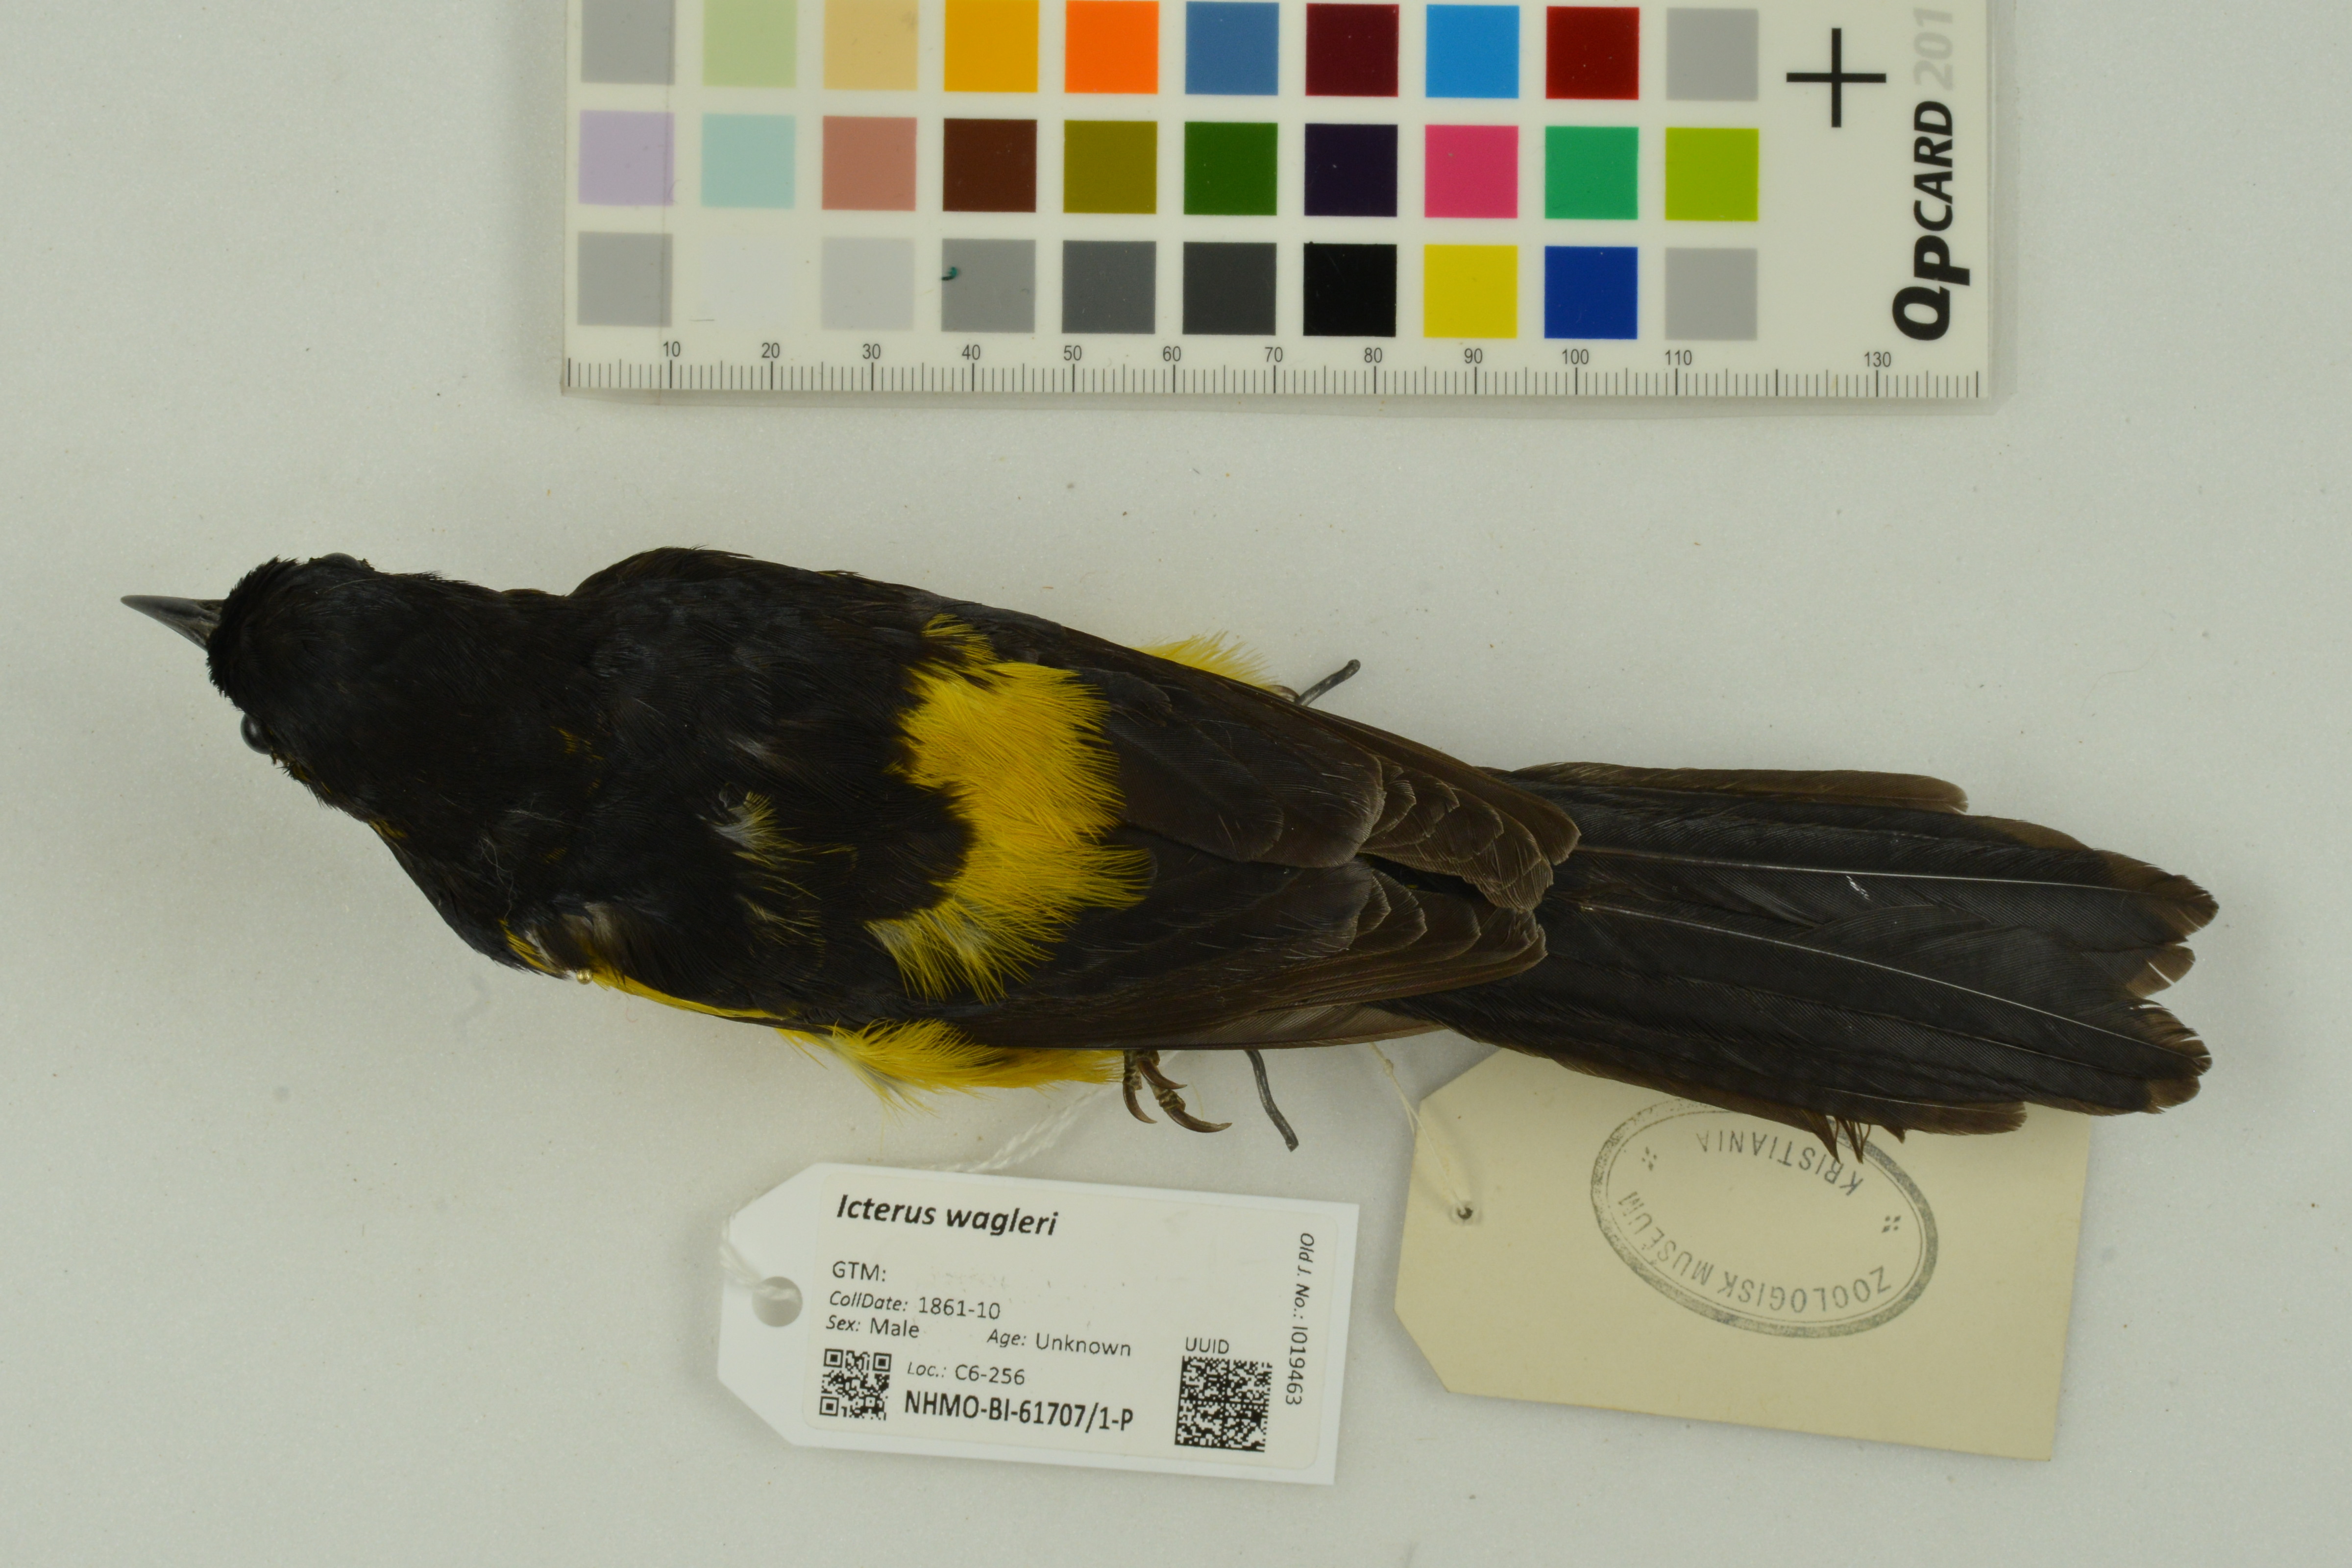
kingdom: Animalia
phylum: Chordata
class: Aves
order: Passeriformes
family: Icteridae
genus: Icterus
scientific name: Icterus wagleri
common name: Black-vented oriole
